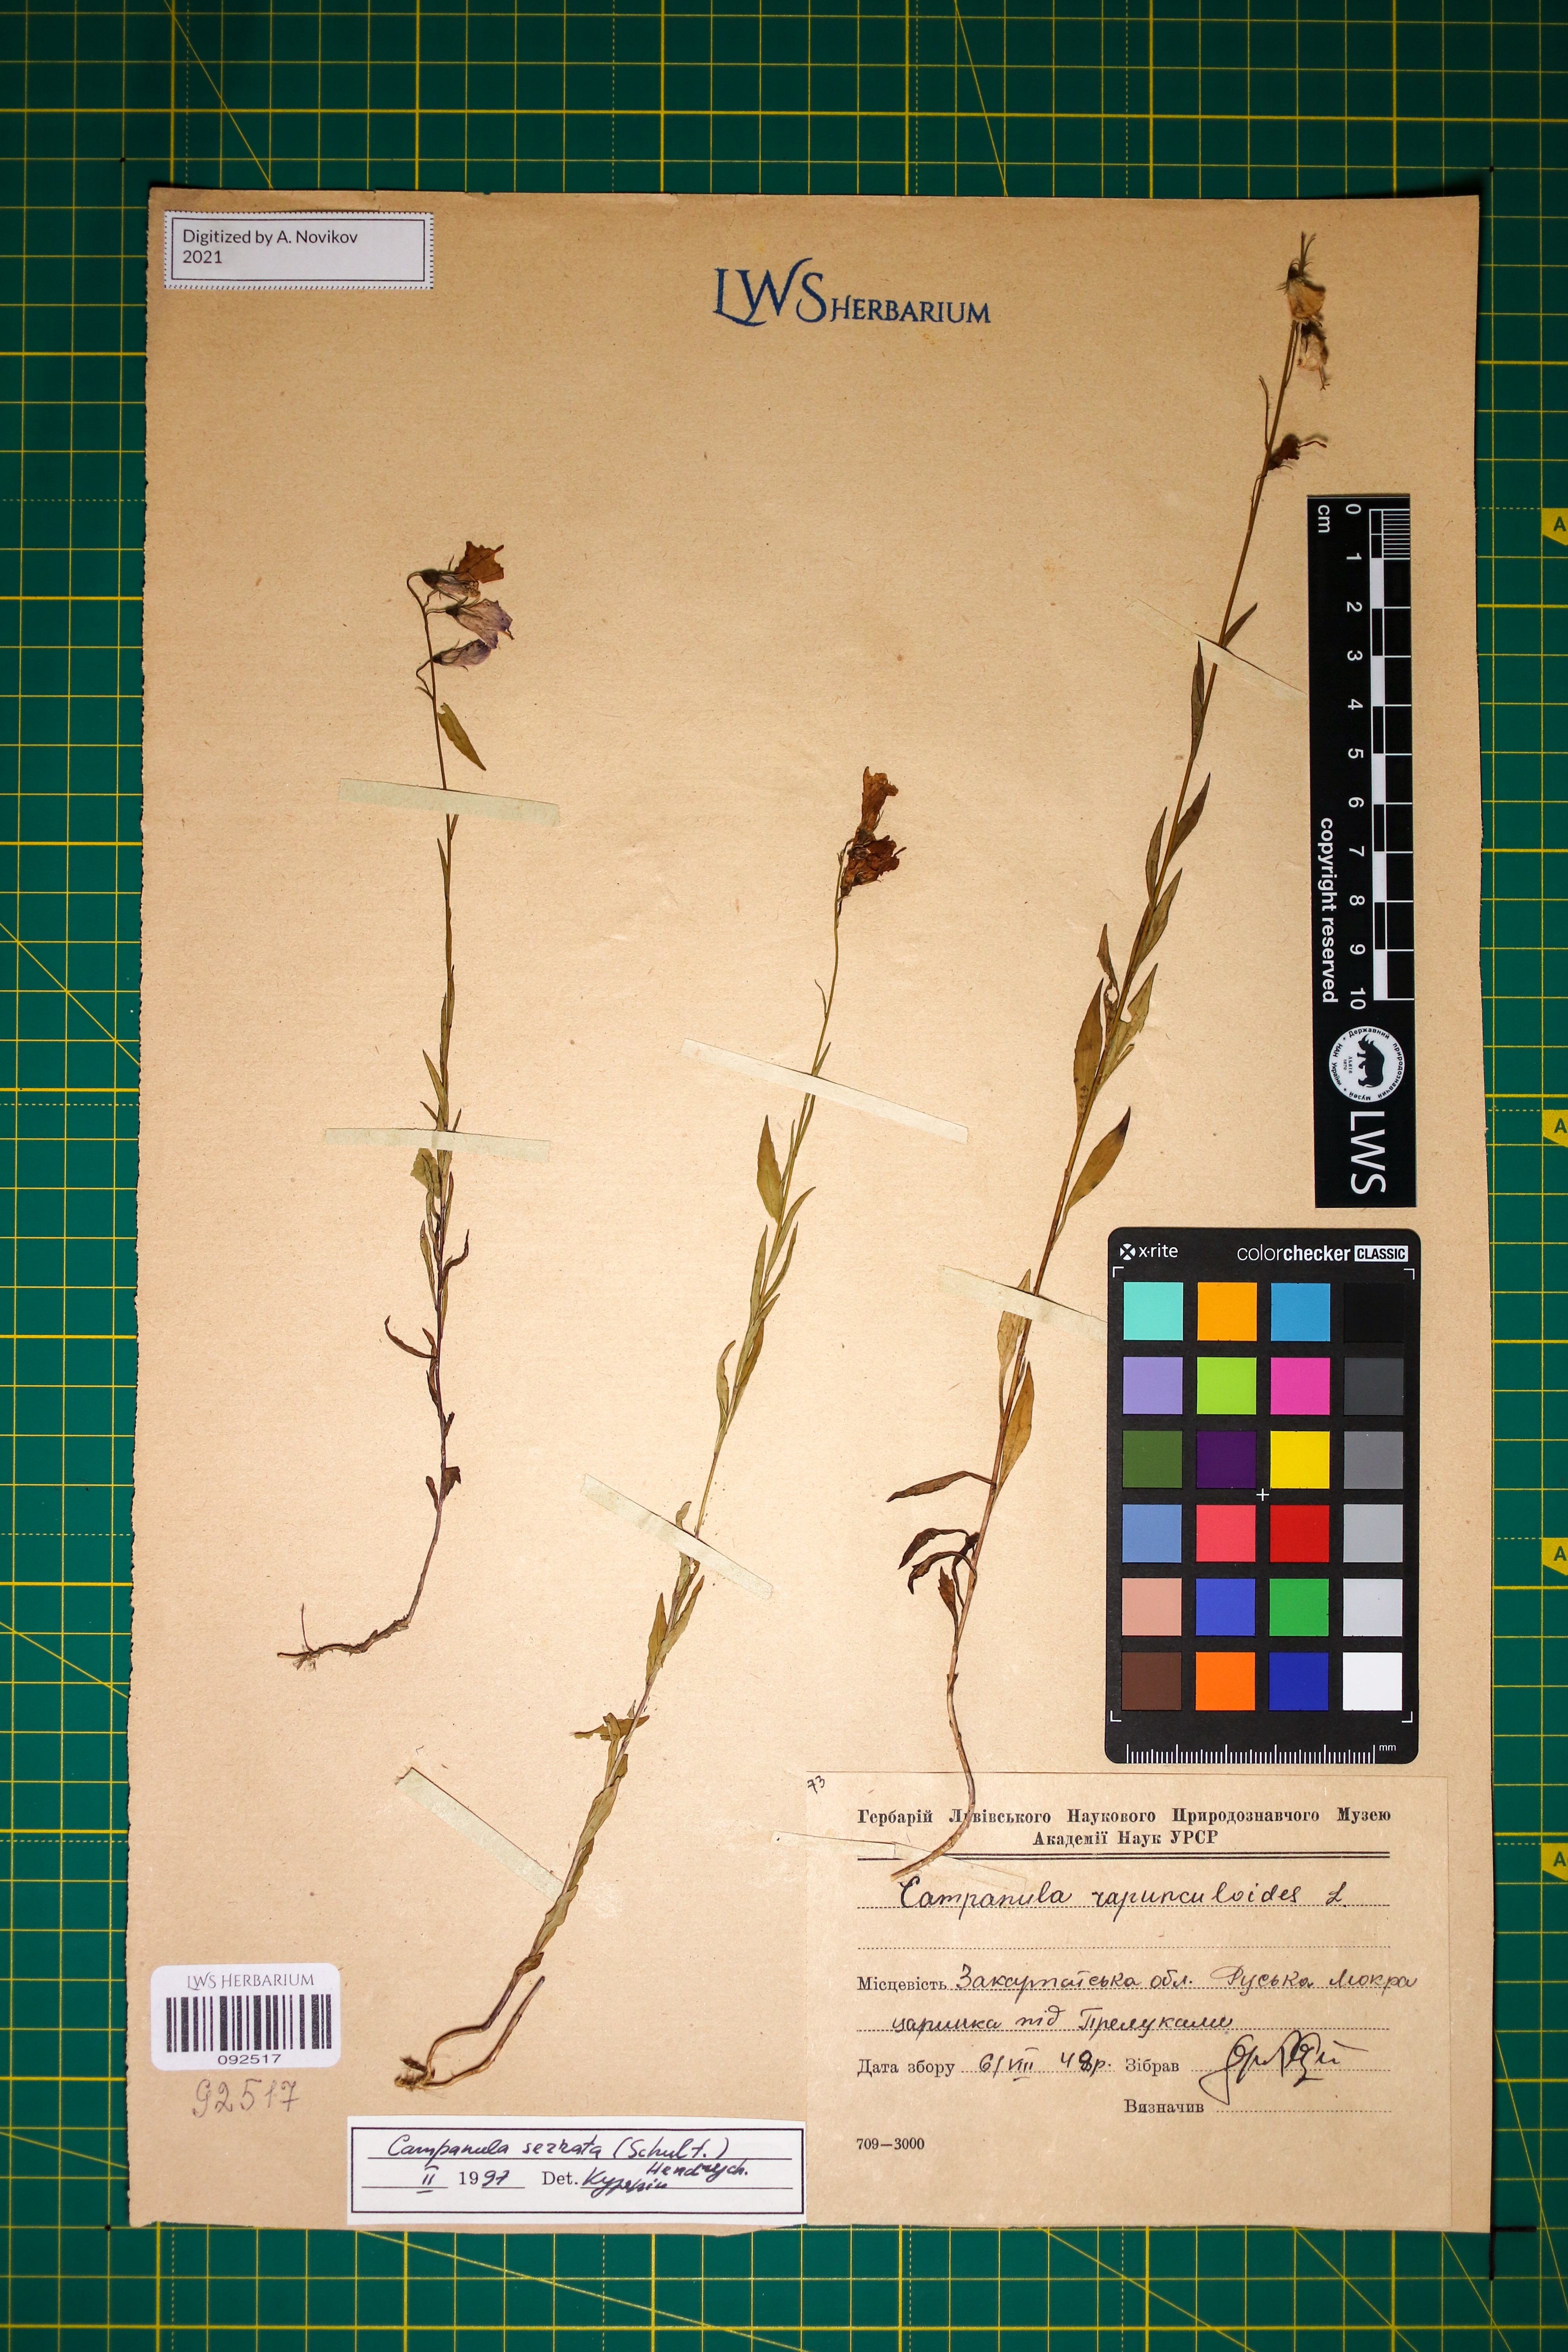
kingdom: Plantae
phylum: Tracheophyta
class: Magnoliopsida
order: Asterales
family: Campanulaceae
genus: Campanula
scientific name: Campanula serrata
